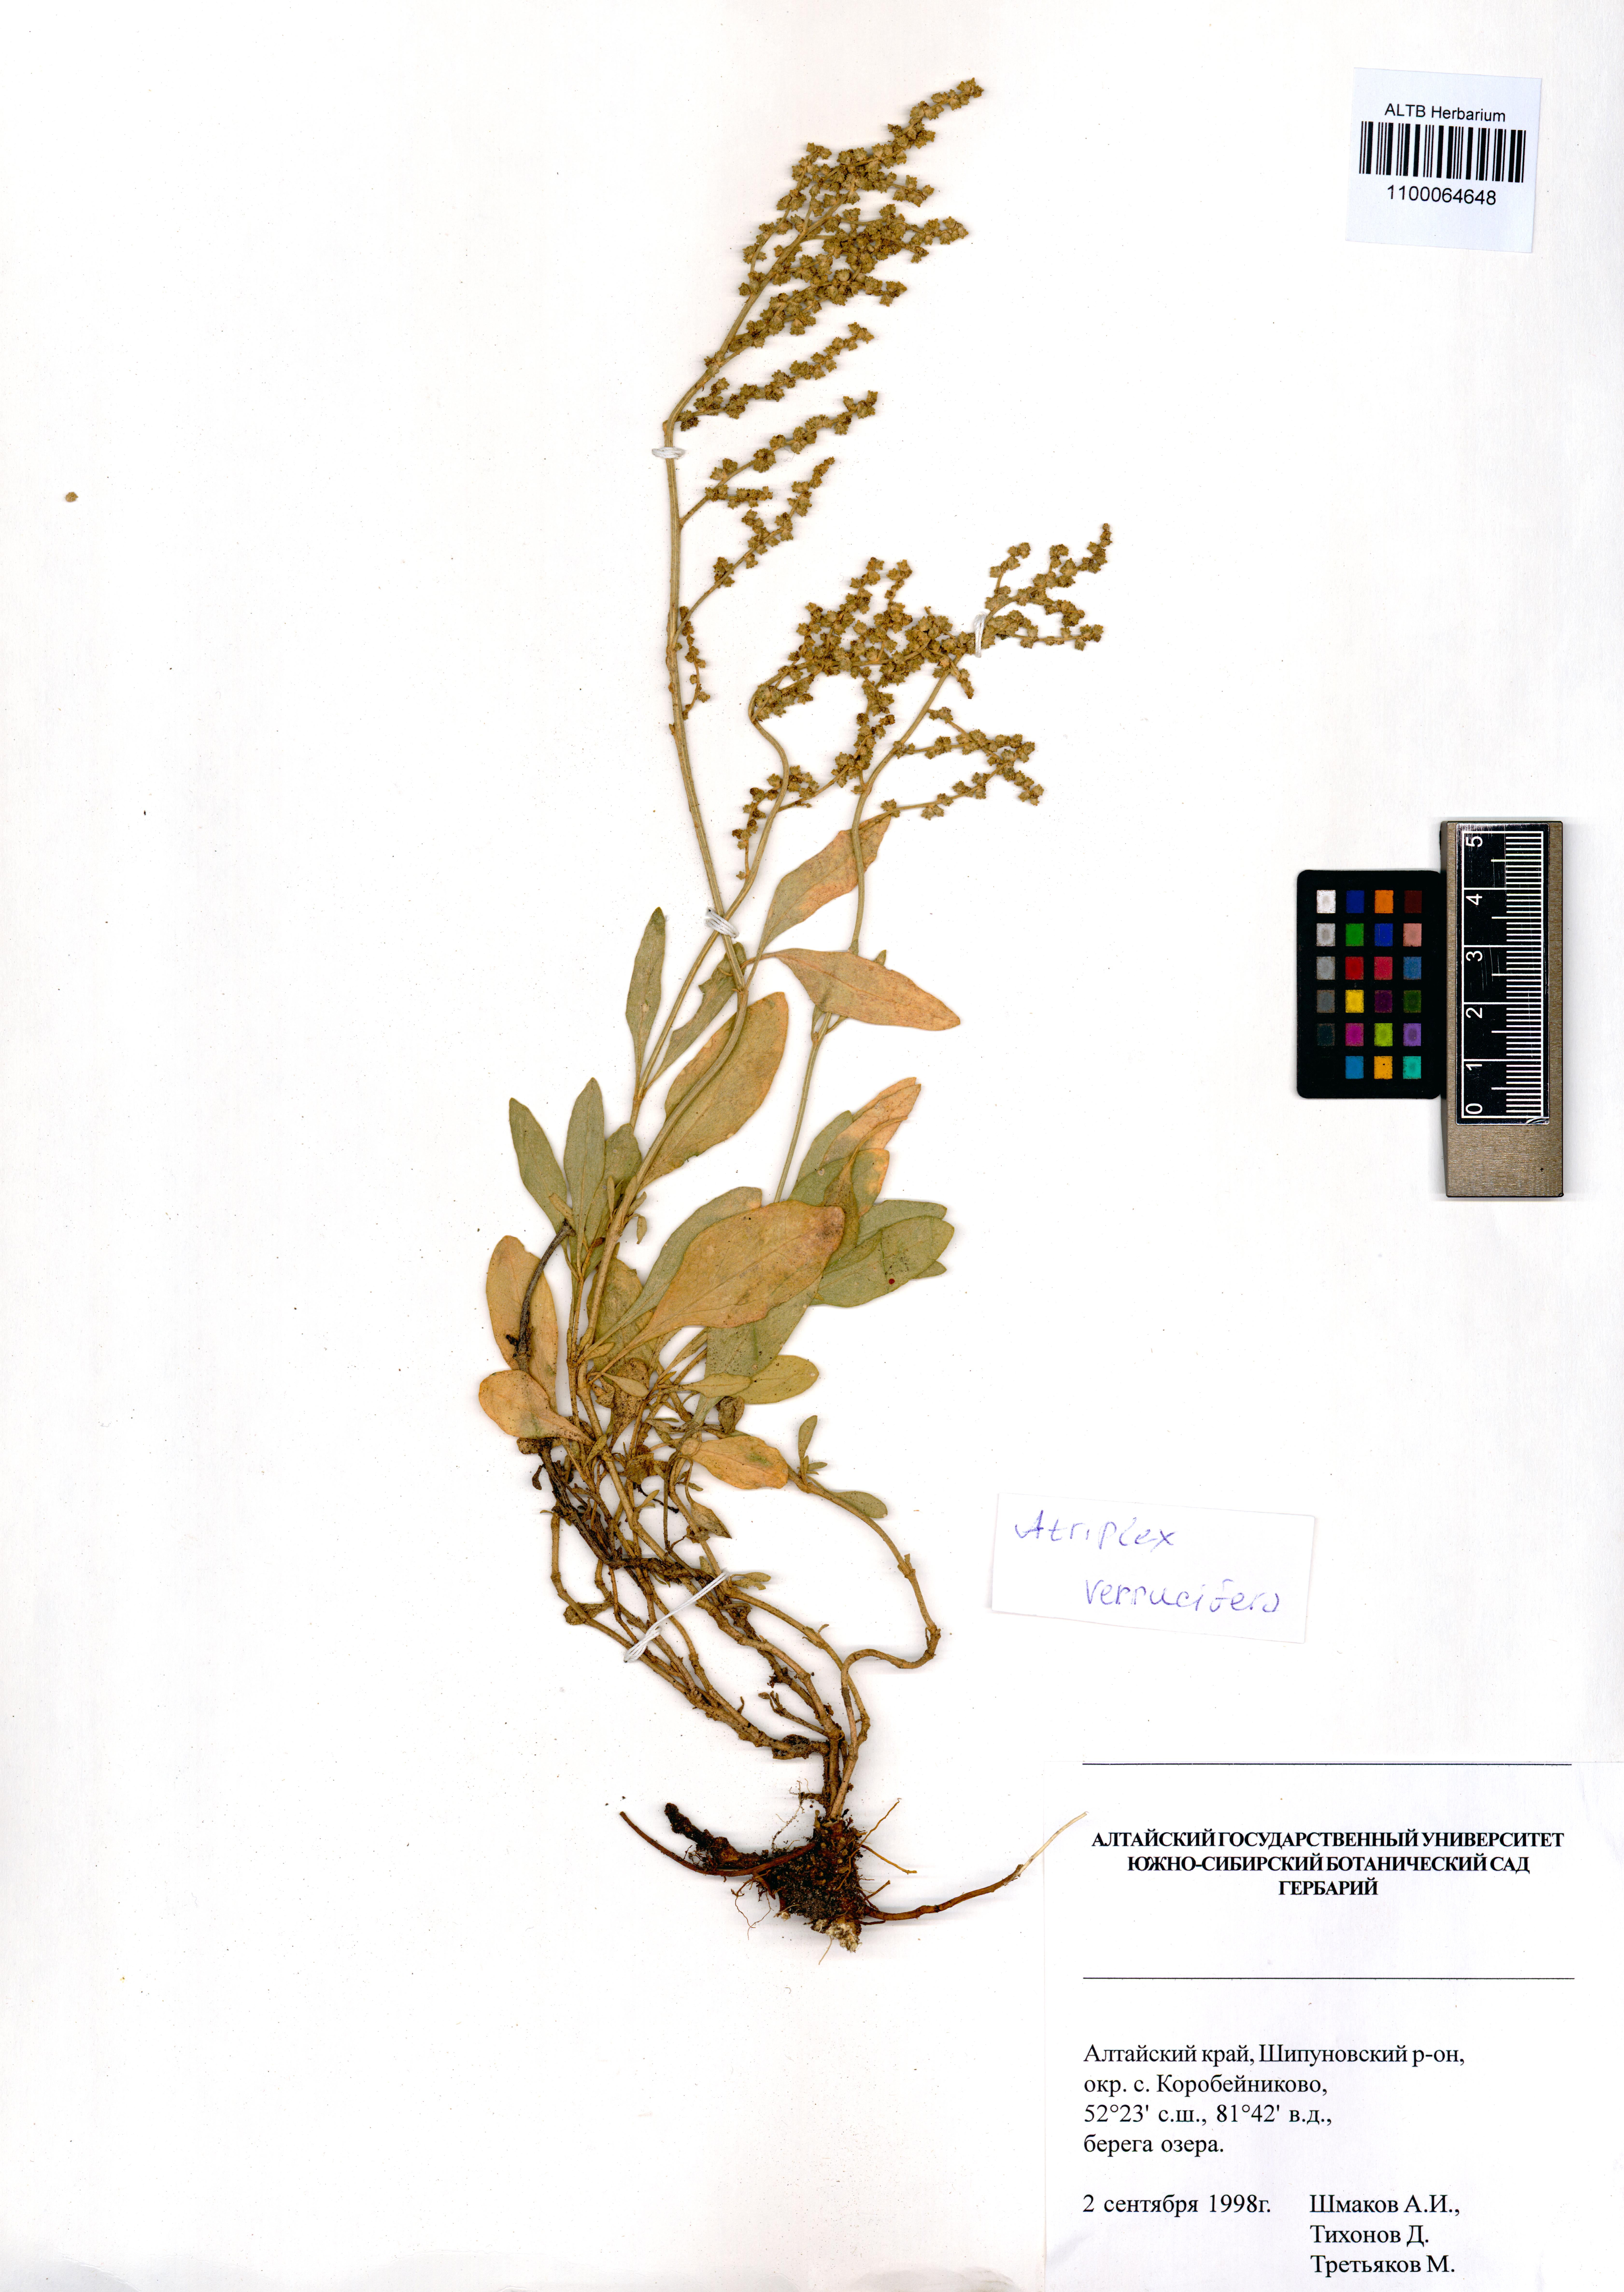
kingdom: Plantae
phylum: Tracheophyta
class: Magnoliopsida
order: Caryophyllales
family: Amaranthaceae
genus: Halimione
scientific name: Halimione verrucifera
